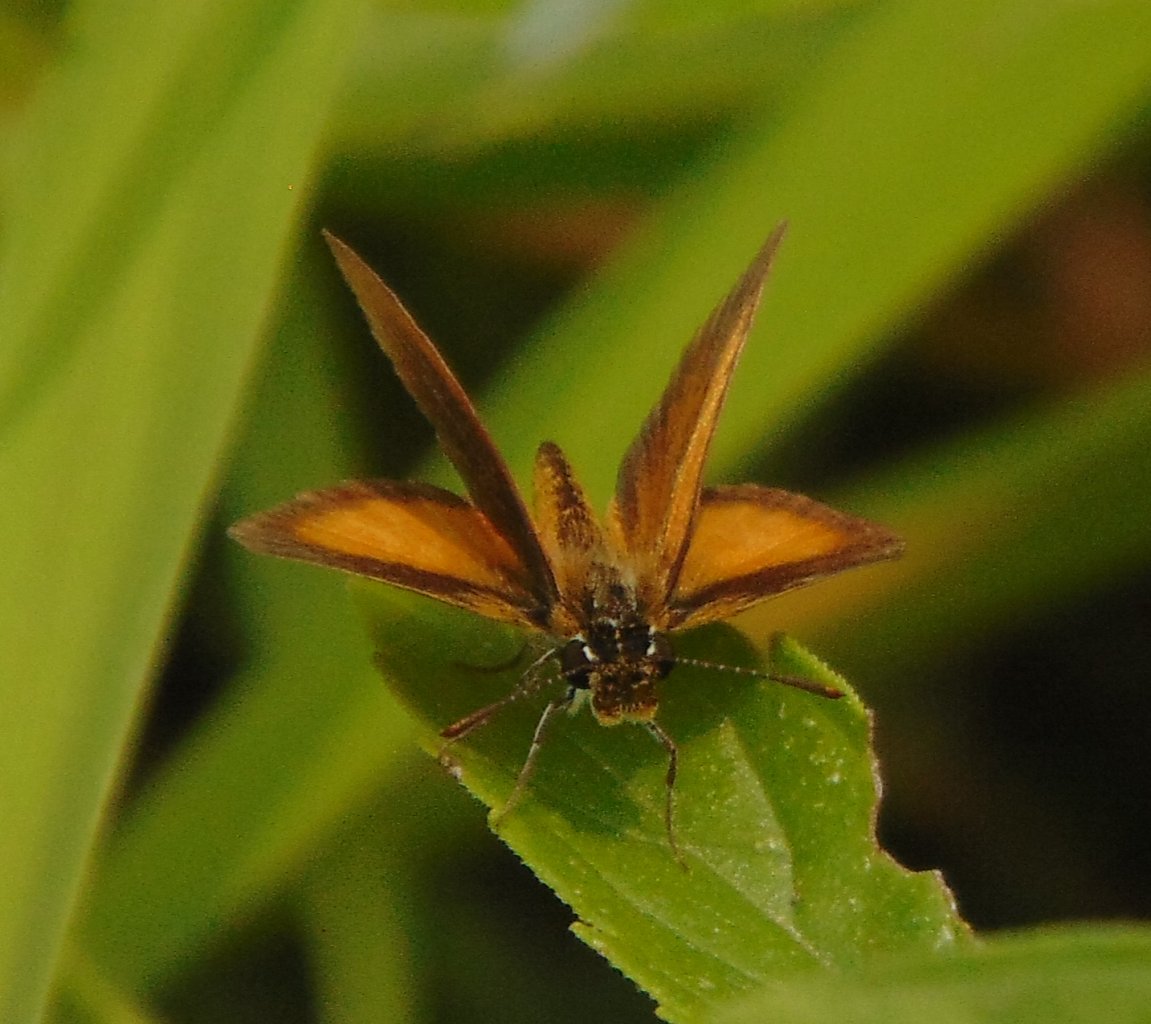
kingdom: Animalia
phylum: Arthropoda
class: Insecta
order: Lepidoptera
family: Hesperiidae
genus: Ancyloxypha
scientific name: Ancyloxypha numitor
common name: Least Skipper
